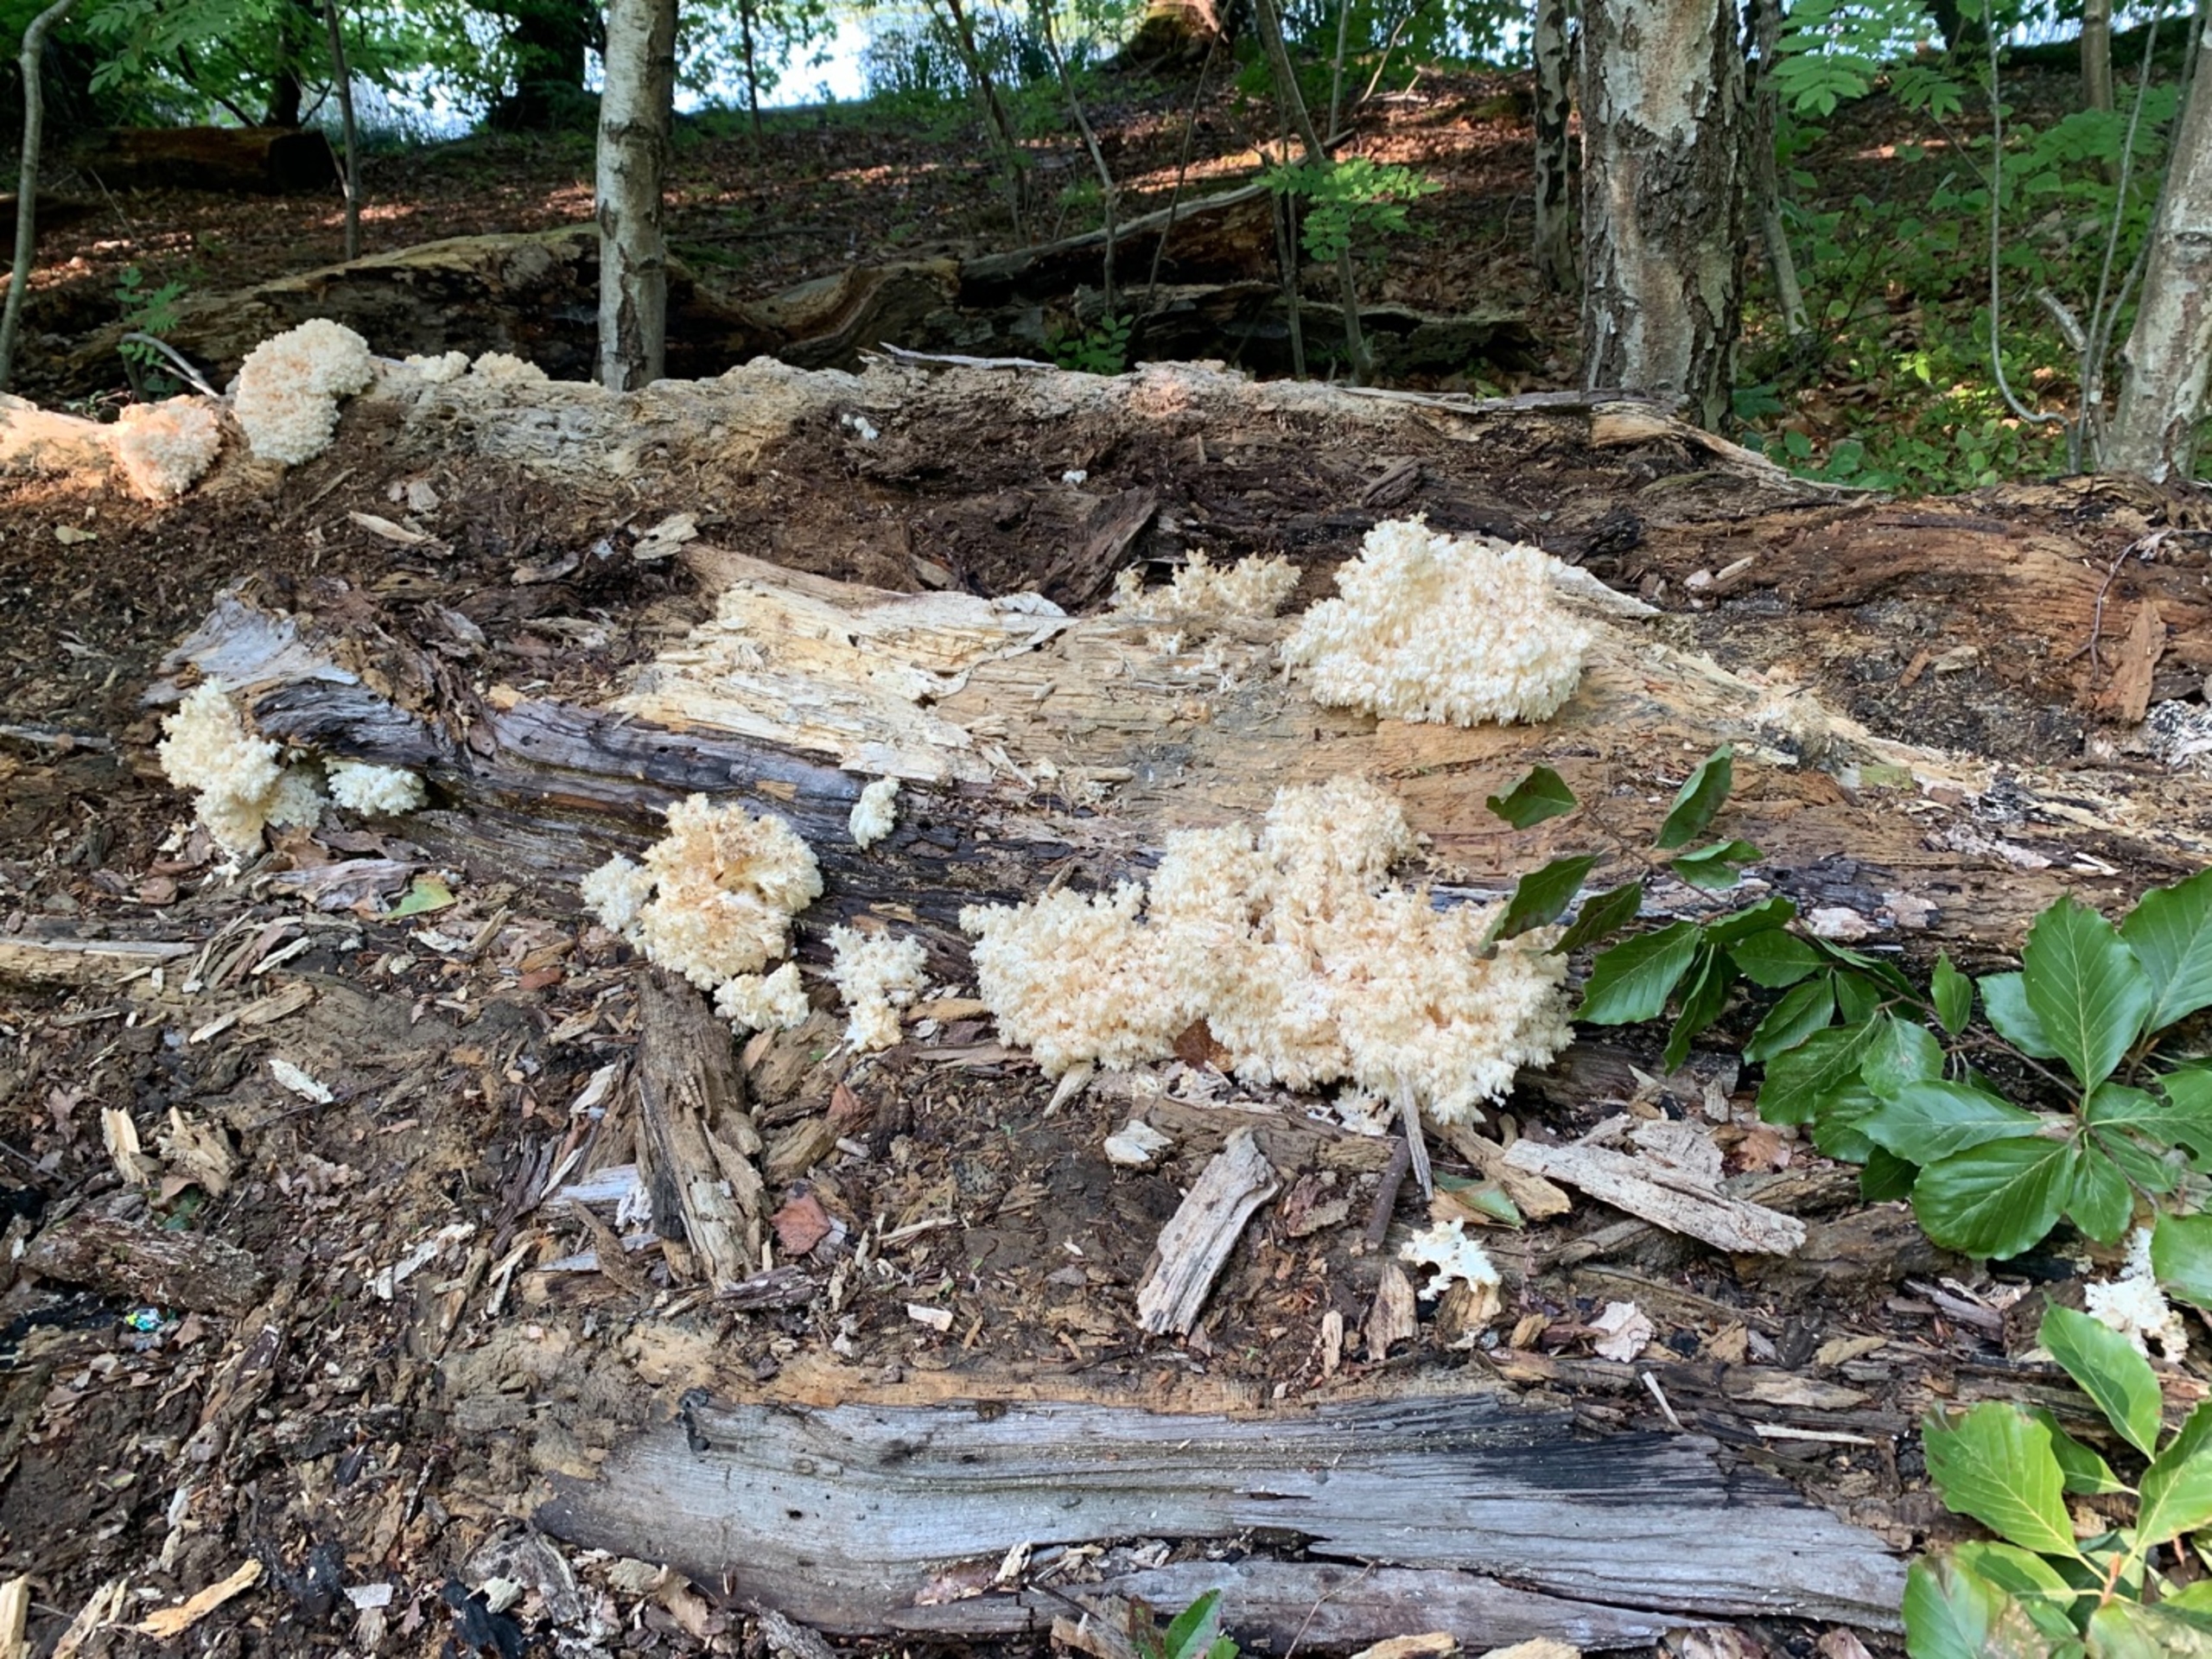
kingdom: Fungi
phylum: Basidiomycota
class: Agaricomycetes
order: Russulales
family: Hericiaceae
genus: Hericium
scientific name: Hericium coralloides
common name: Koralpigsvamp
